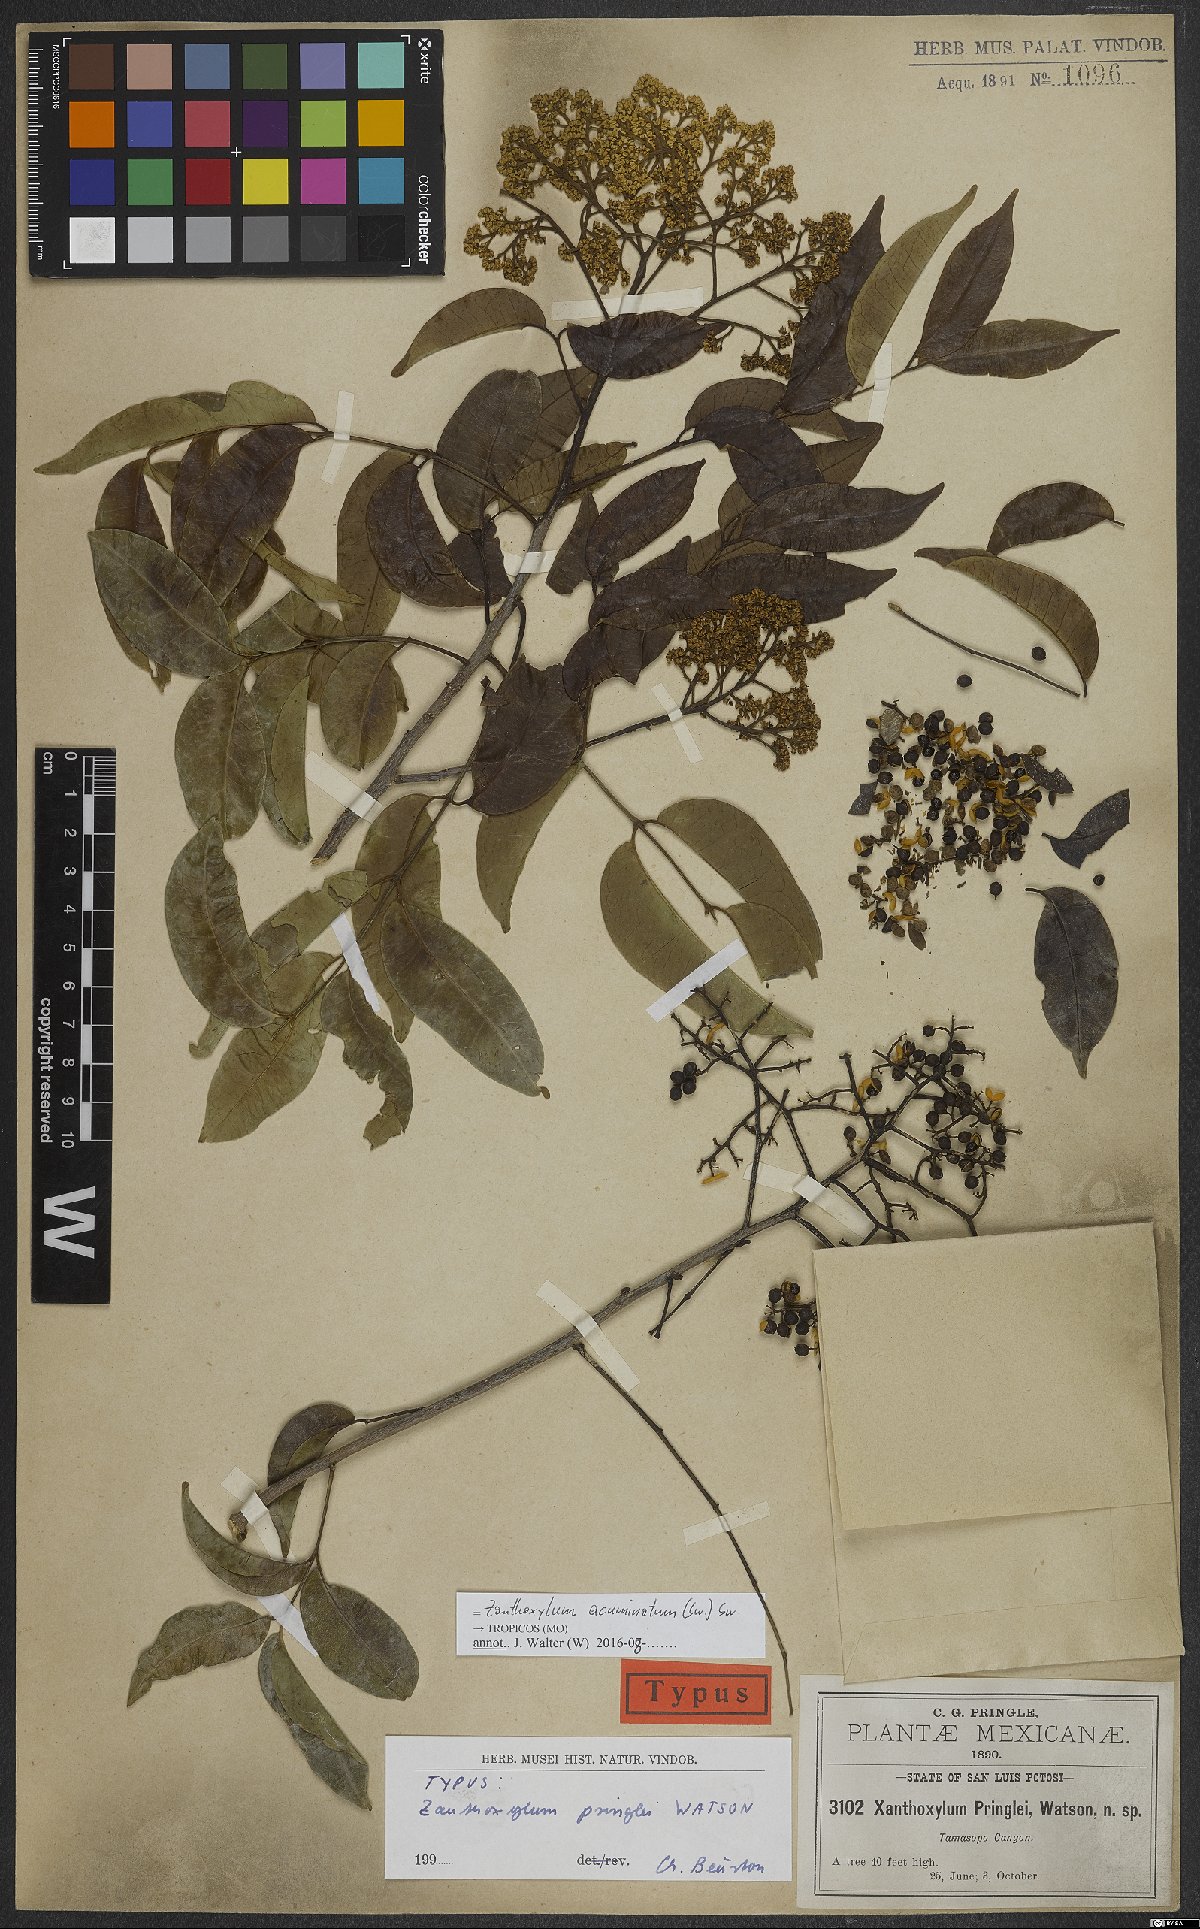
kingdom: Plantae
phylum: Tracheophyta
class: Magnoliopsida
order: Sapindales
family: Rutaceae
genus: Zanthoxylum
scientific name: Zanthoxylum acuminatum
